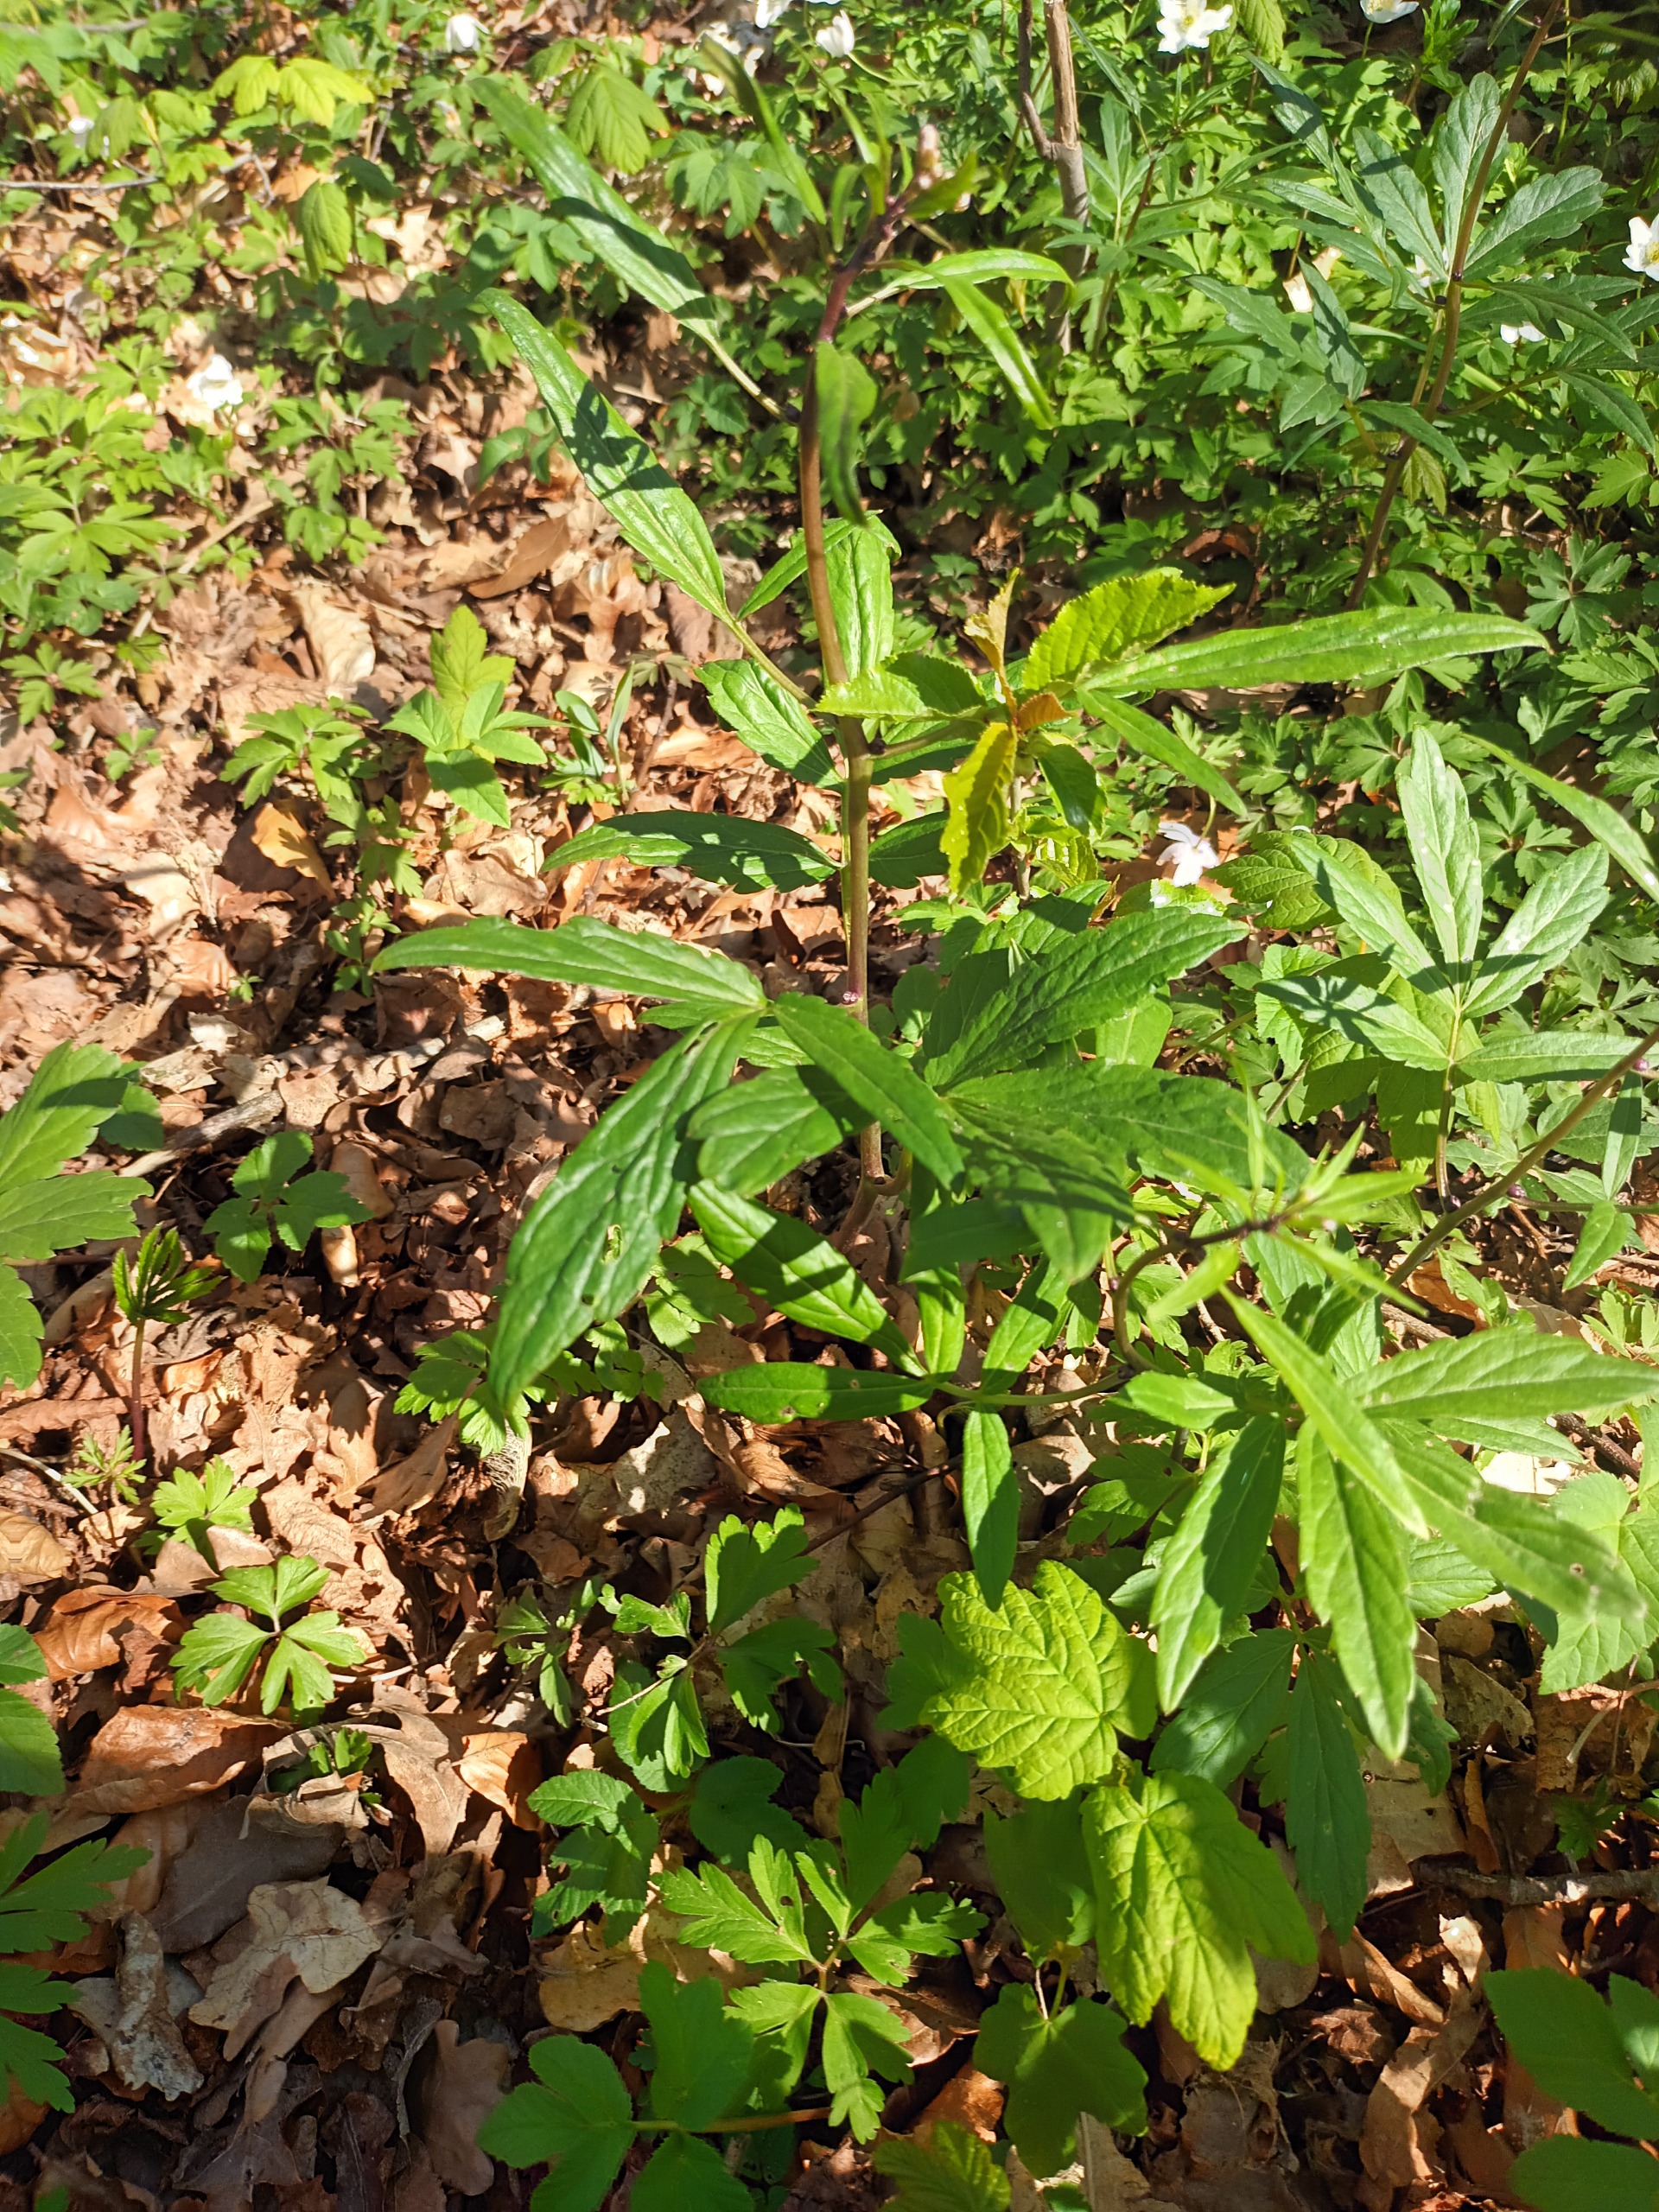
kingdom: Plantae
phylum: Tracheophyta
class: Magnoliopsida
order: Brassicales
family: Brassicaceae
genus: Cardamine
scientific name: Cardamine bulbifera
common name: Tandrod
